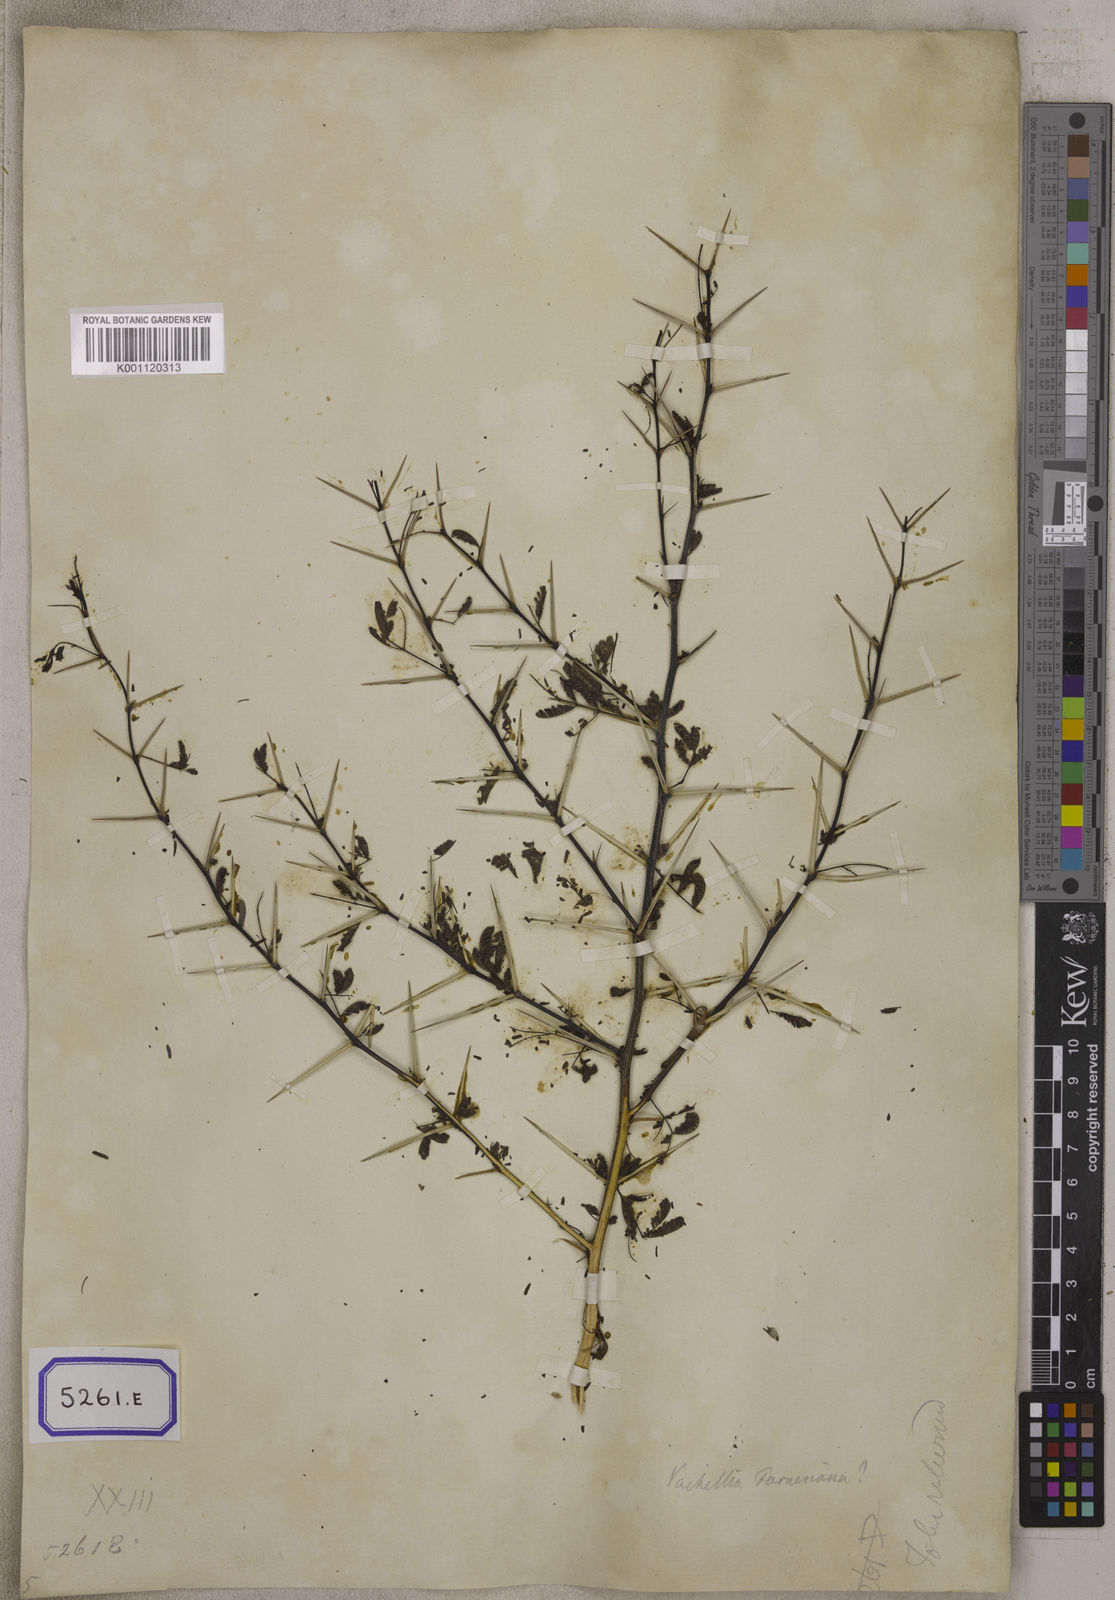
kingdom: Plantae
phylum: Tracheophyta
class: Magnoliopsida
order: Fabales
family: Fabaceae
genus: Vachellia
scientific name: Vachellia leucophloea
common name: Distiller's acacia
